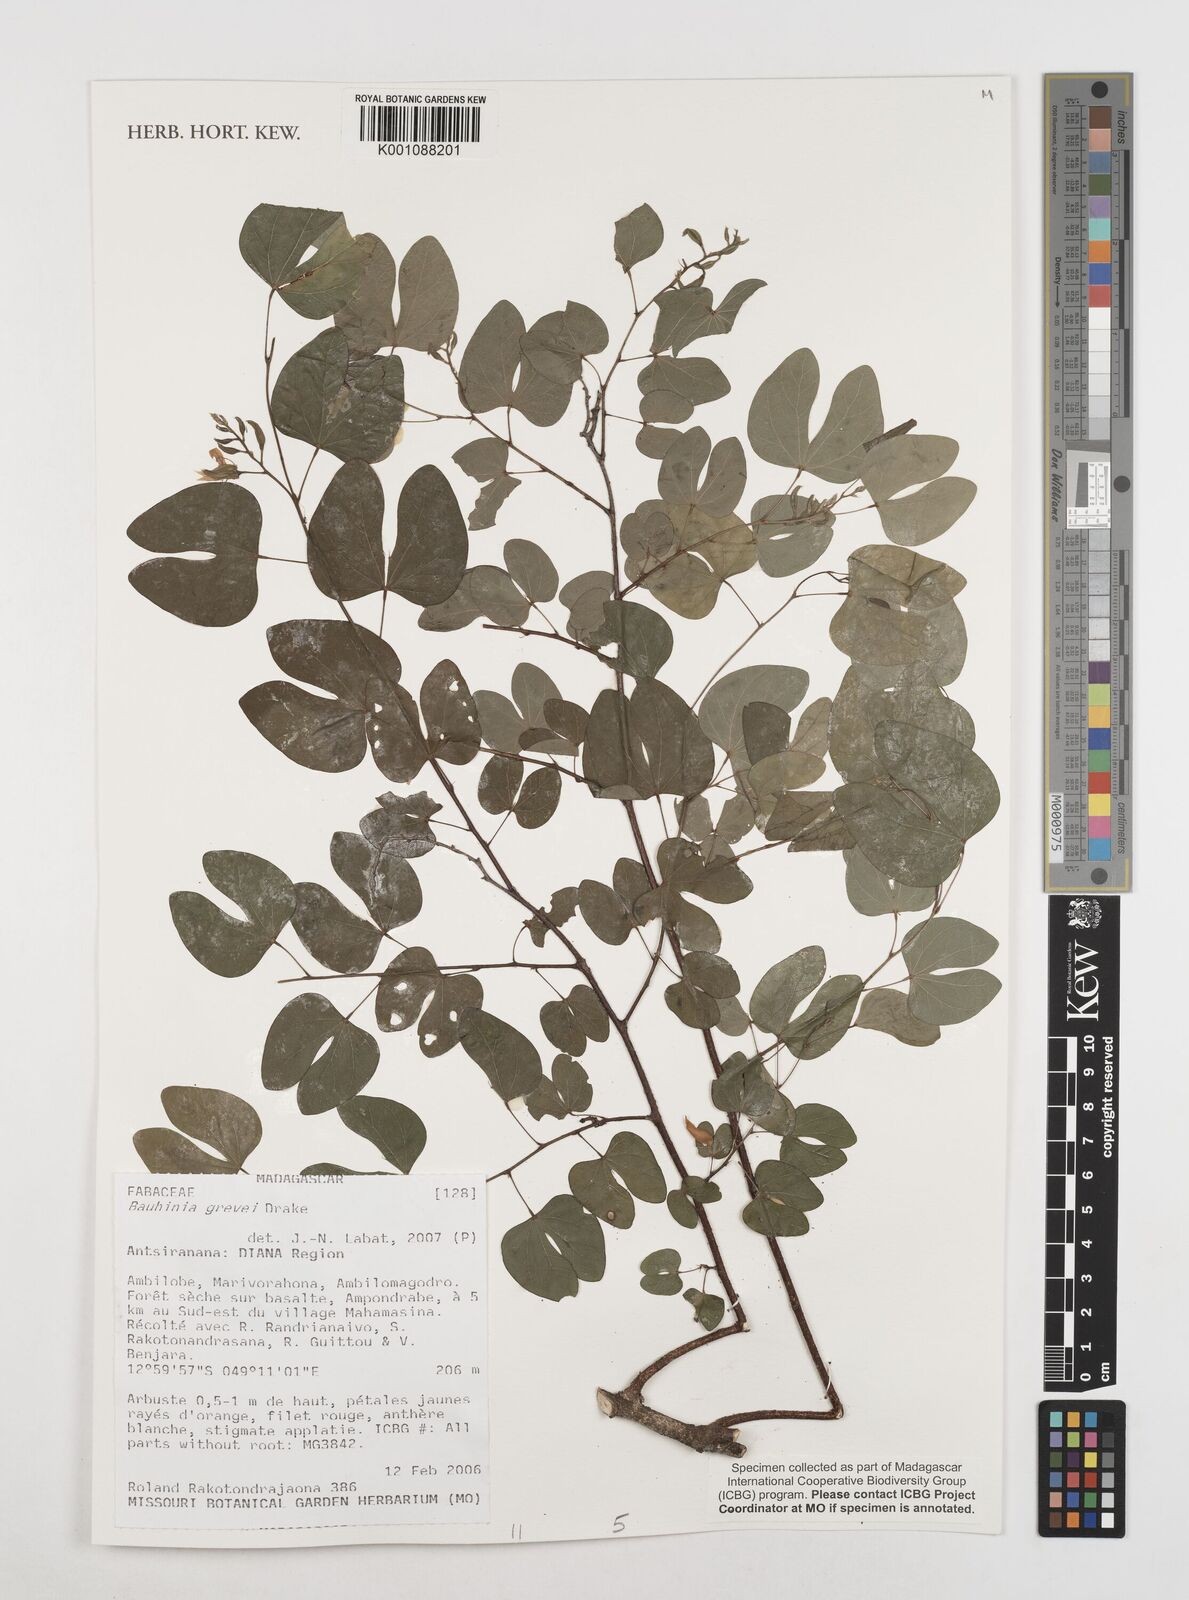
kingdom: Plantae
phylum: Tracheophyta
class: Magnoliopsida
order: Fabales
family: Fabaceae
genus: Bauhinia
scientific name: Bauhinia grevei
